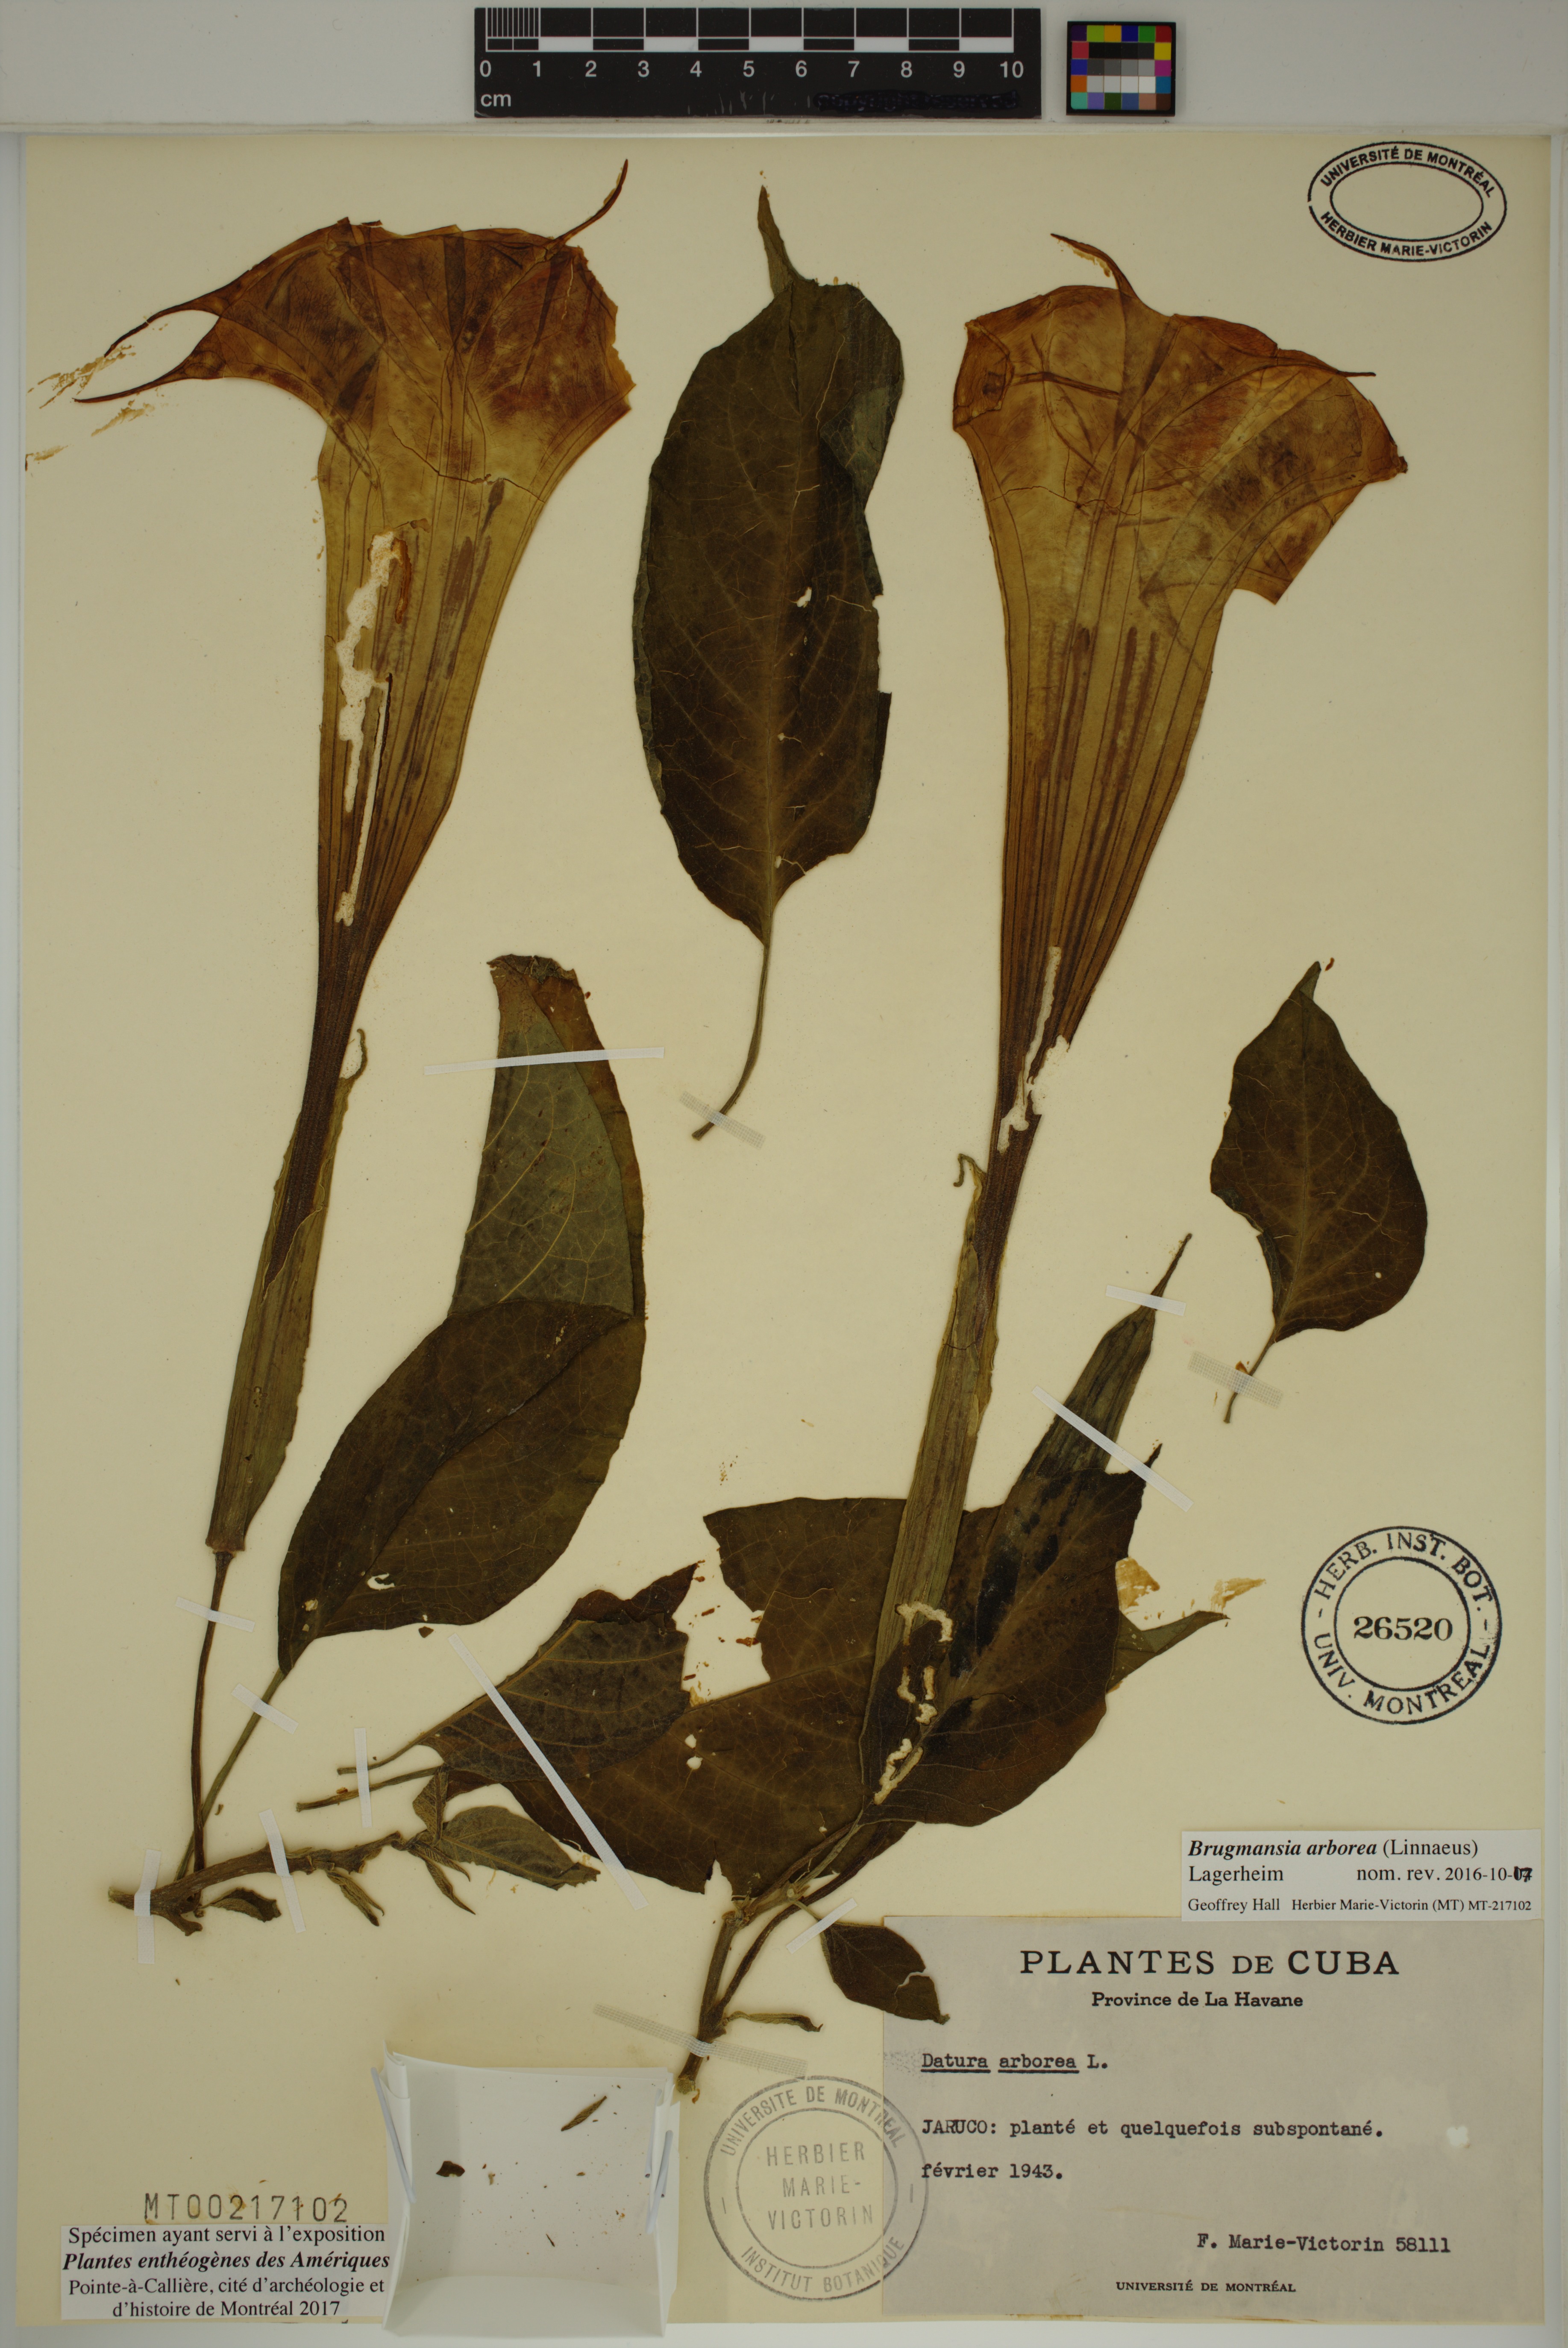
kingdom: Plantae
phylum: Tracheophyta
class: Magnoliopsida
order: Solanales
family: Solanaceae
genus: Brugmansia
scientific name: Brugmansia arborea
